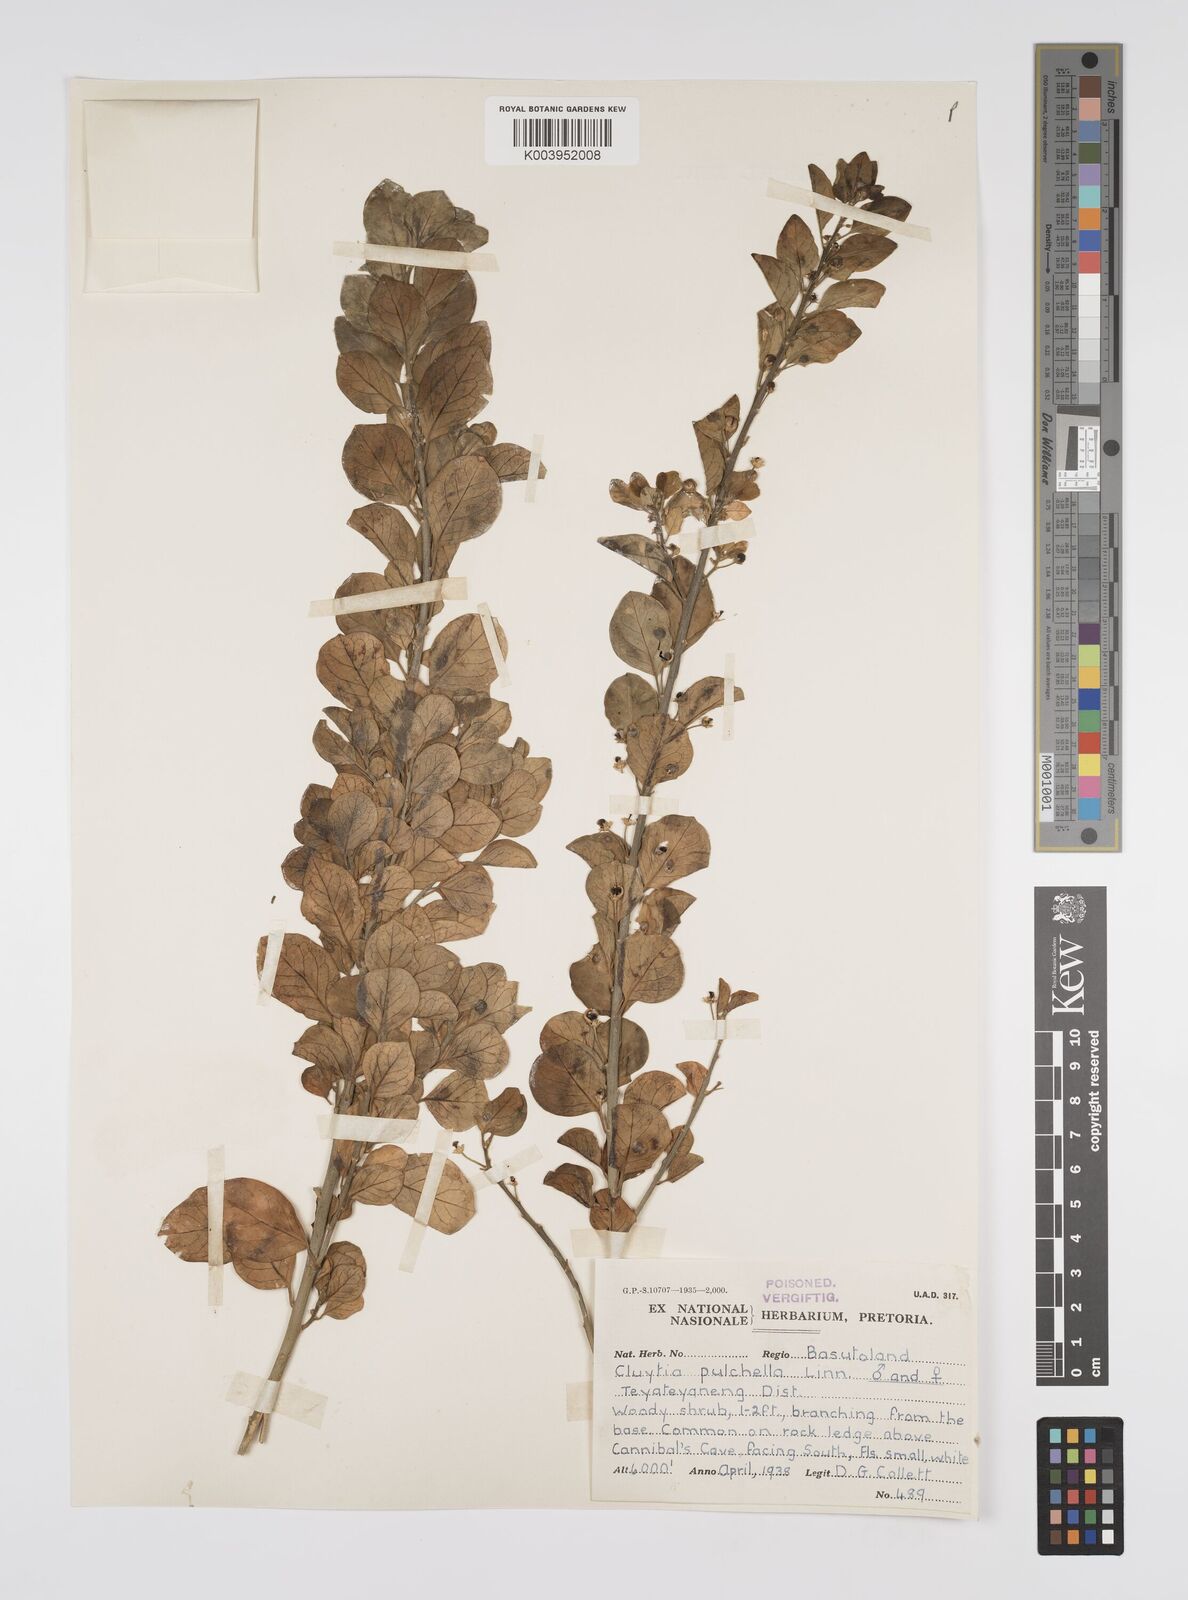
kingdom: Plantae
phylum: Tracheophyta
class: Magnoliopsida
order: Malpighiales
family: Peraceae
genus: Clutia
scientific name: Clutia pulchella
